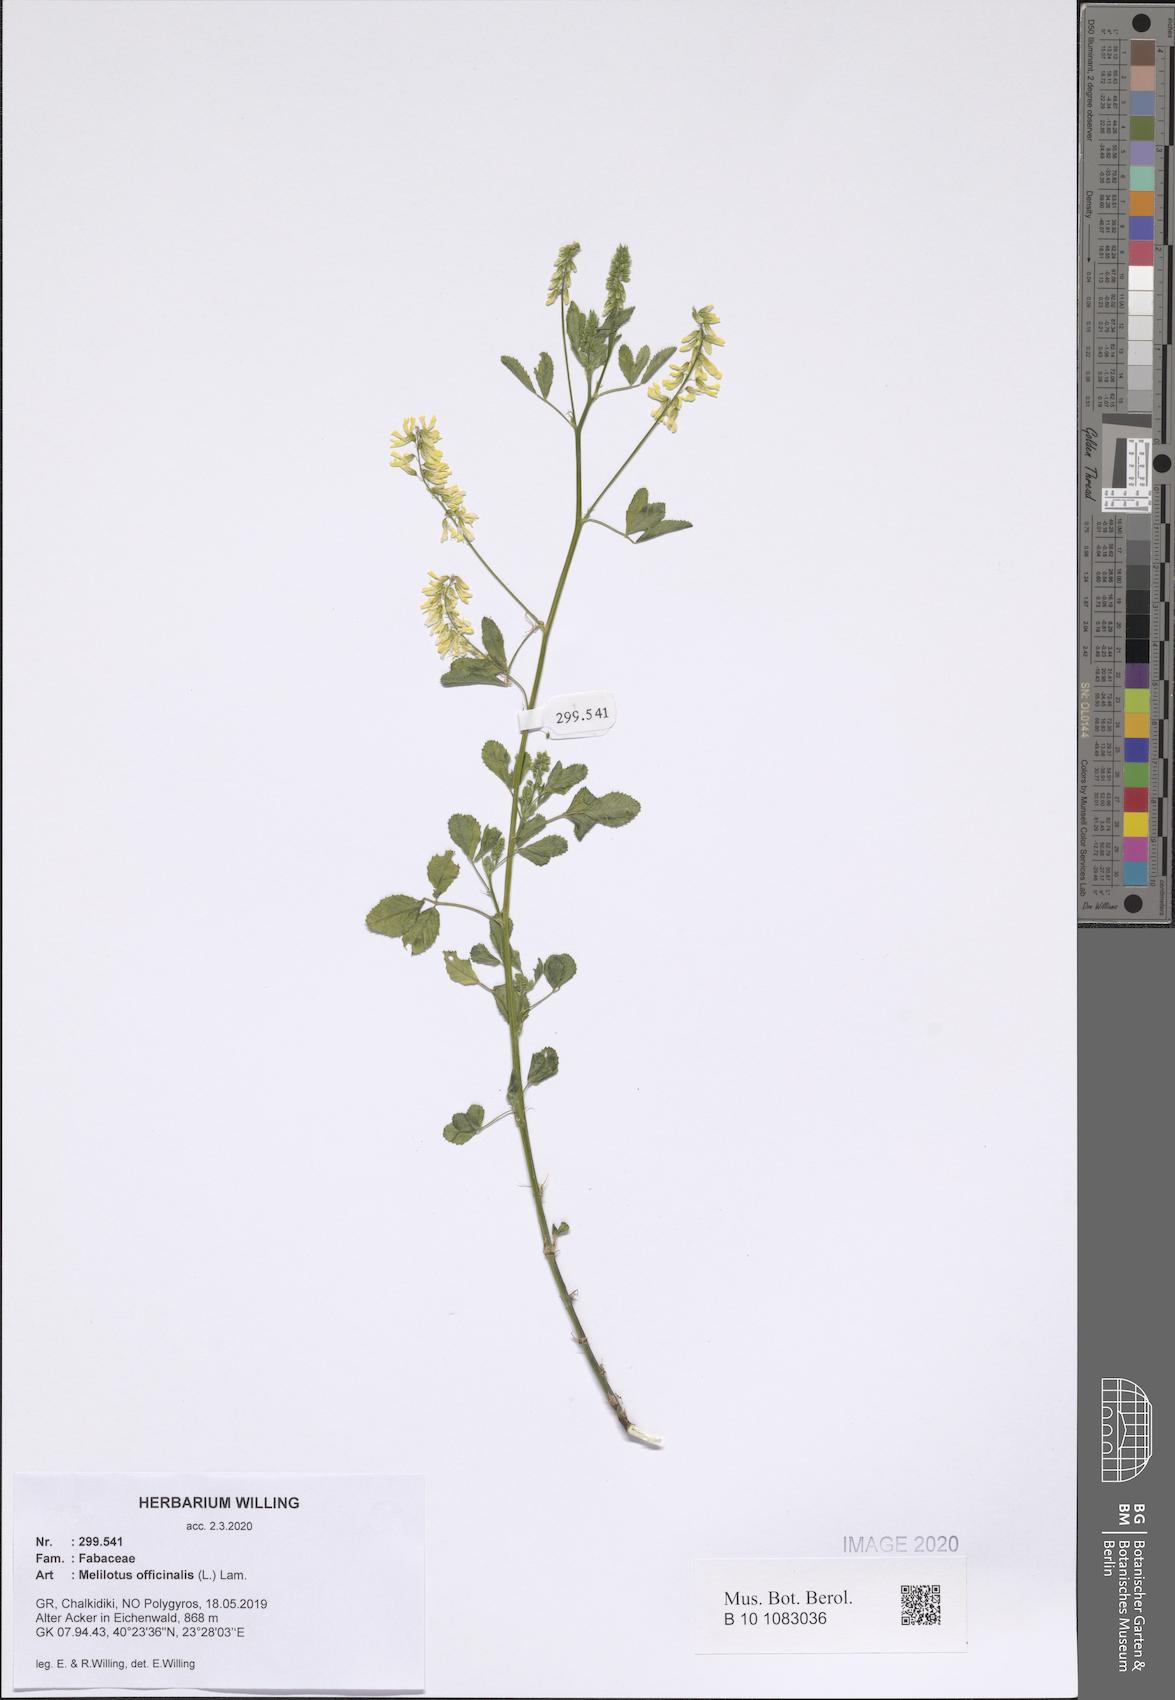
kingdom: Plantae
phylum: Tracheophyta
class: Magnoliopsida
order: Fabales
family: Fabaceae
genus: Melilotus
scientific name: Melilotus officinalis
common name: Sweetclover
